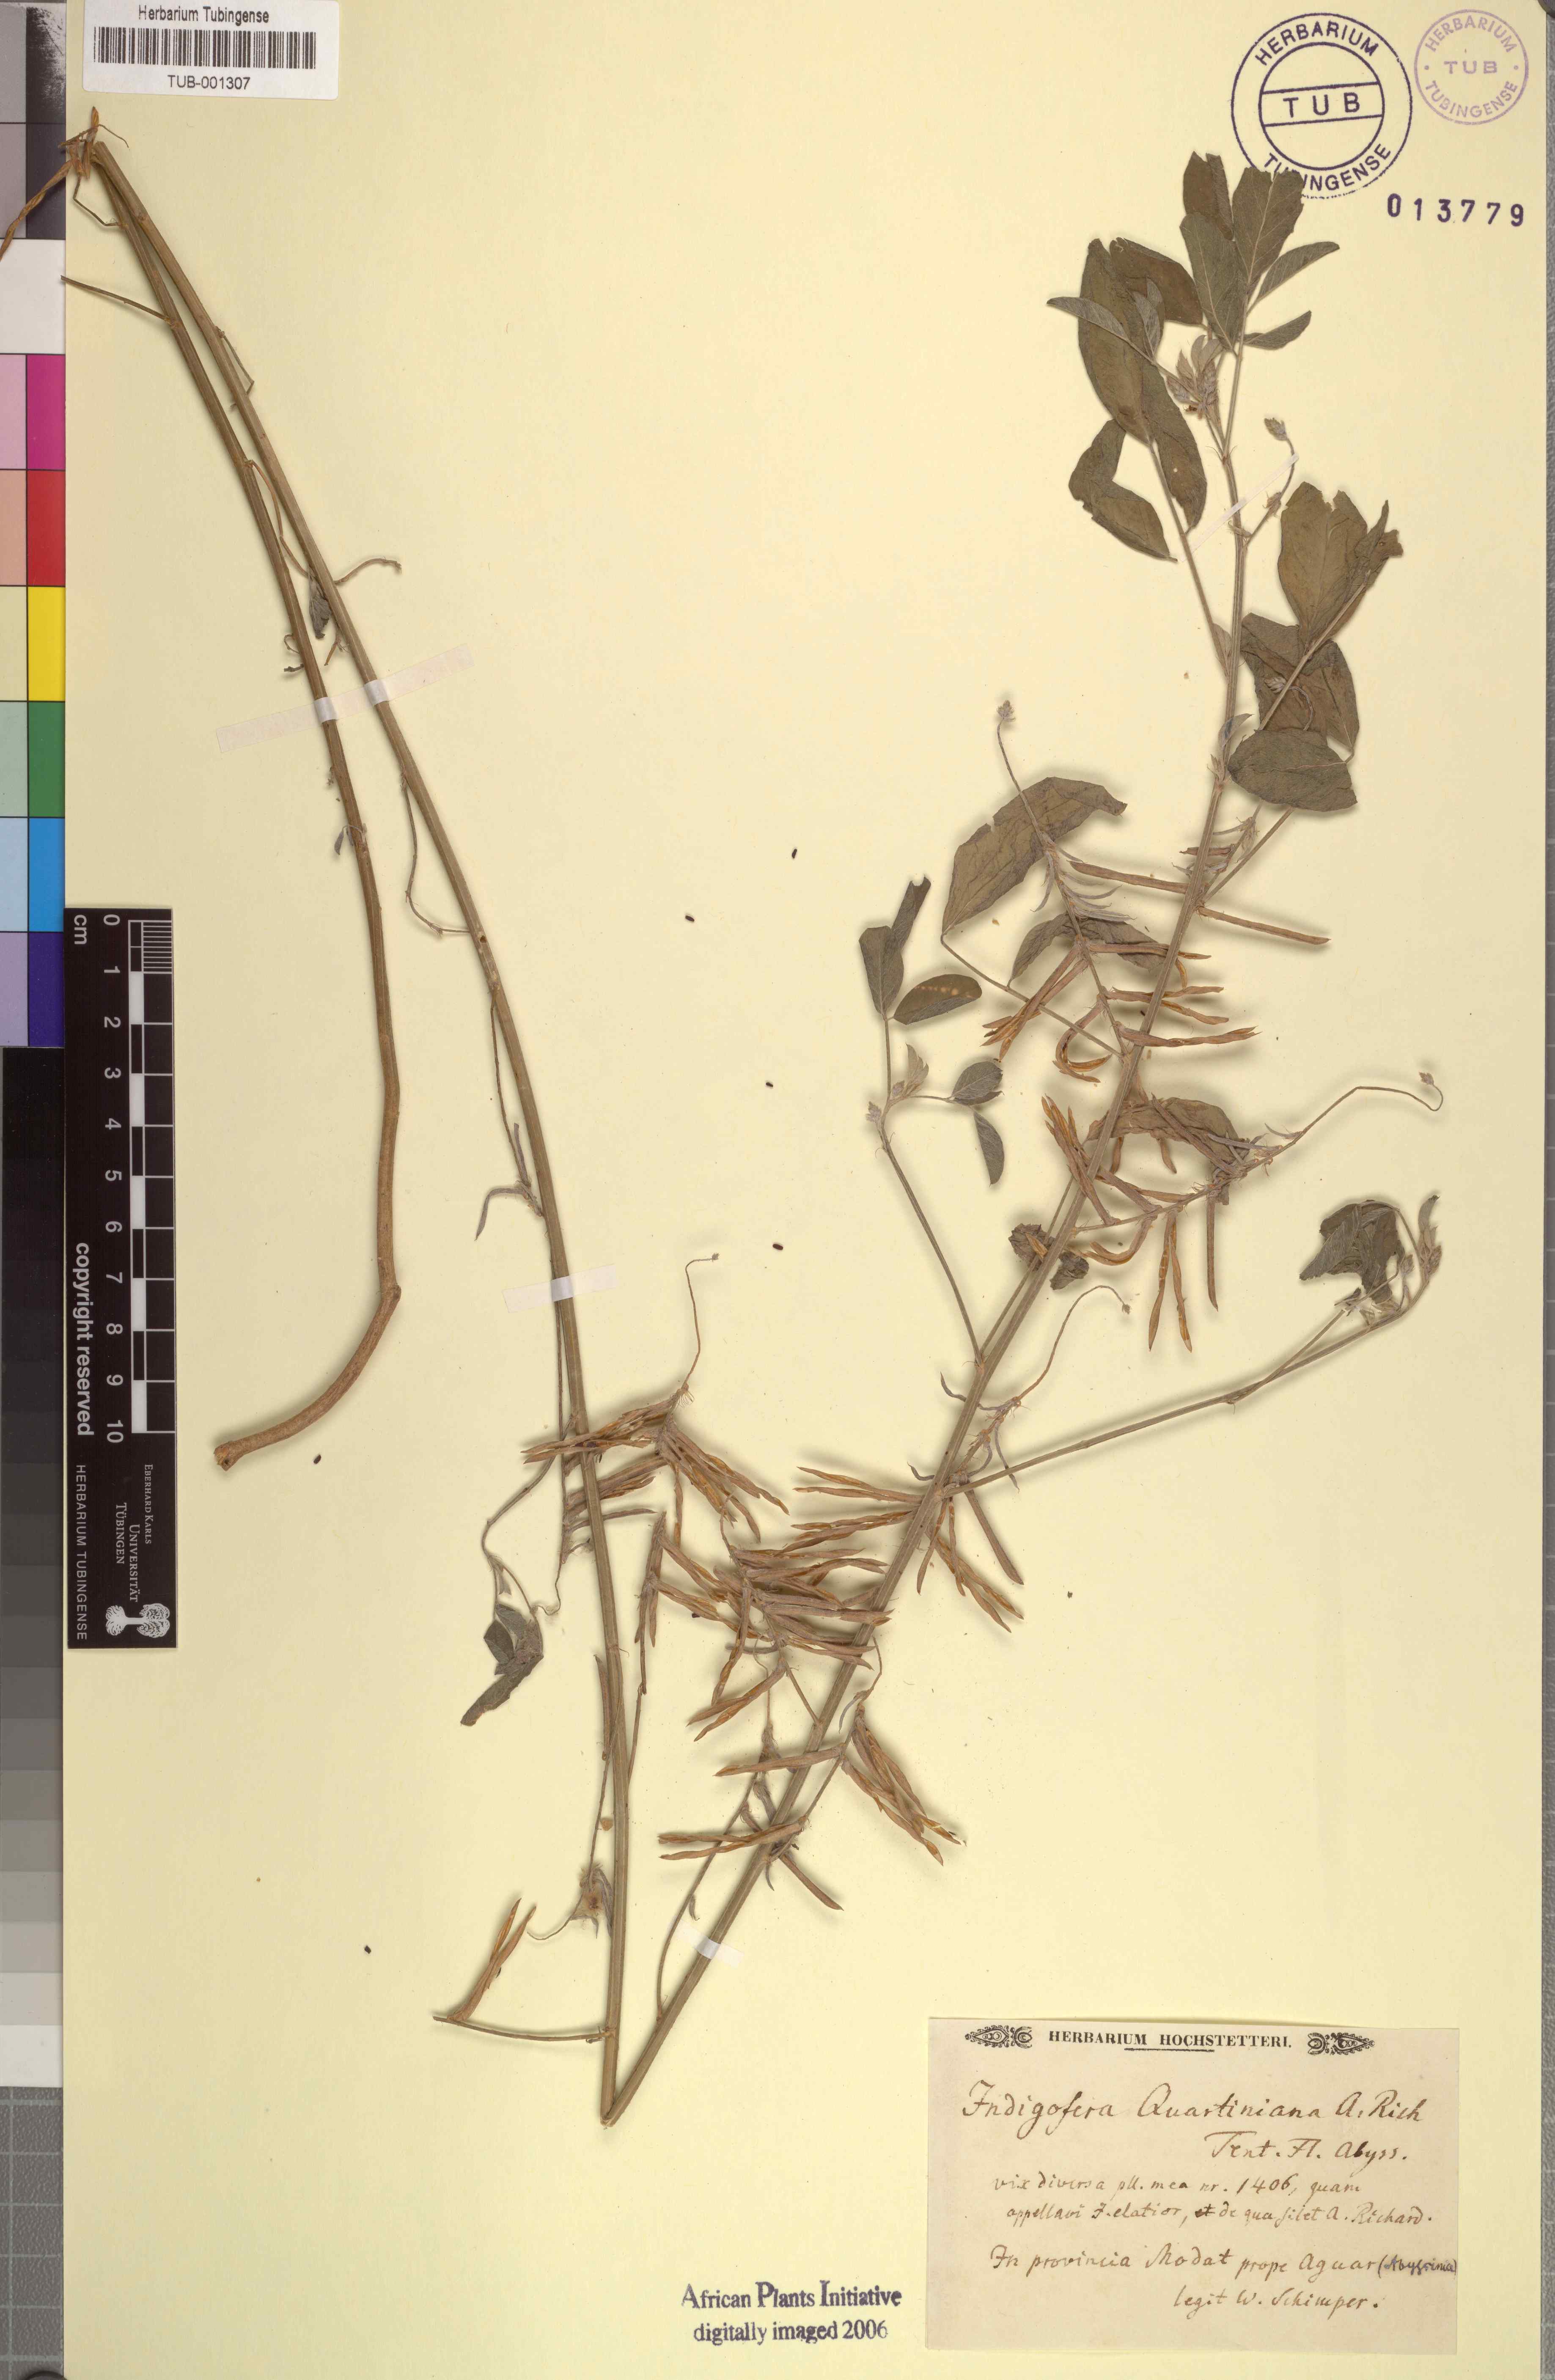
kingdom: Plantae
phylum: Tracheophyta
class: Magnoliopsida
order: Fabales
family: Fabaceae
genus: Indigofera
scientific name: Indigofera subulata
